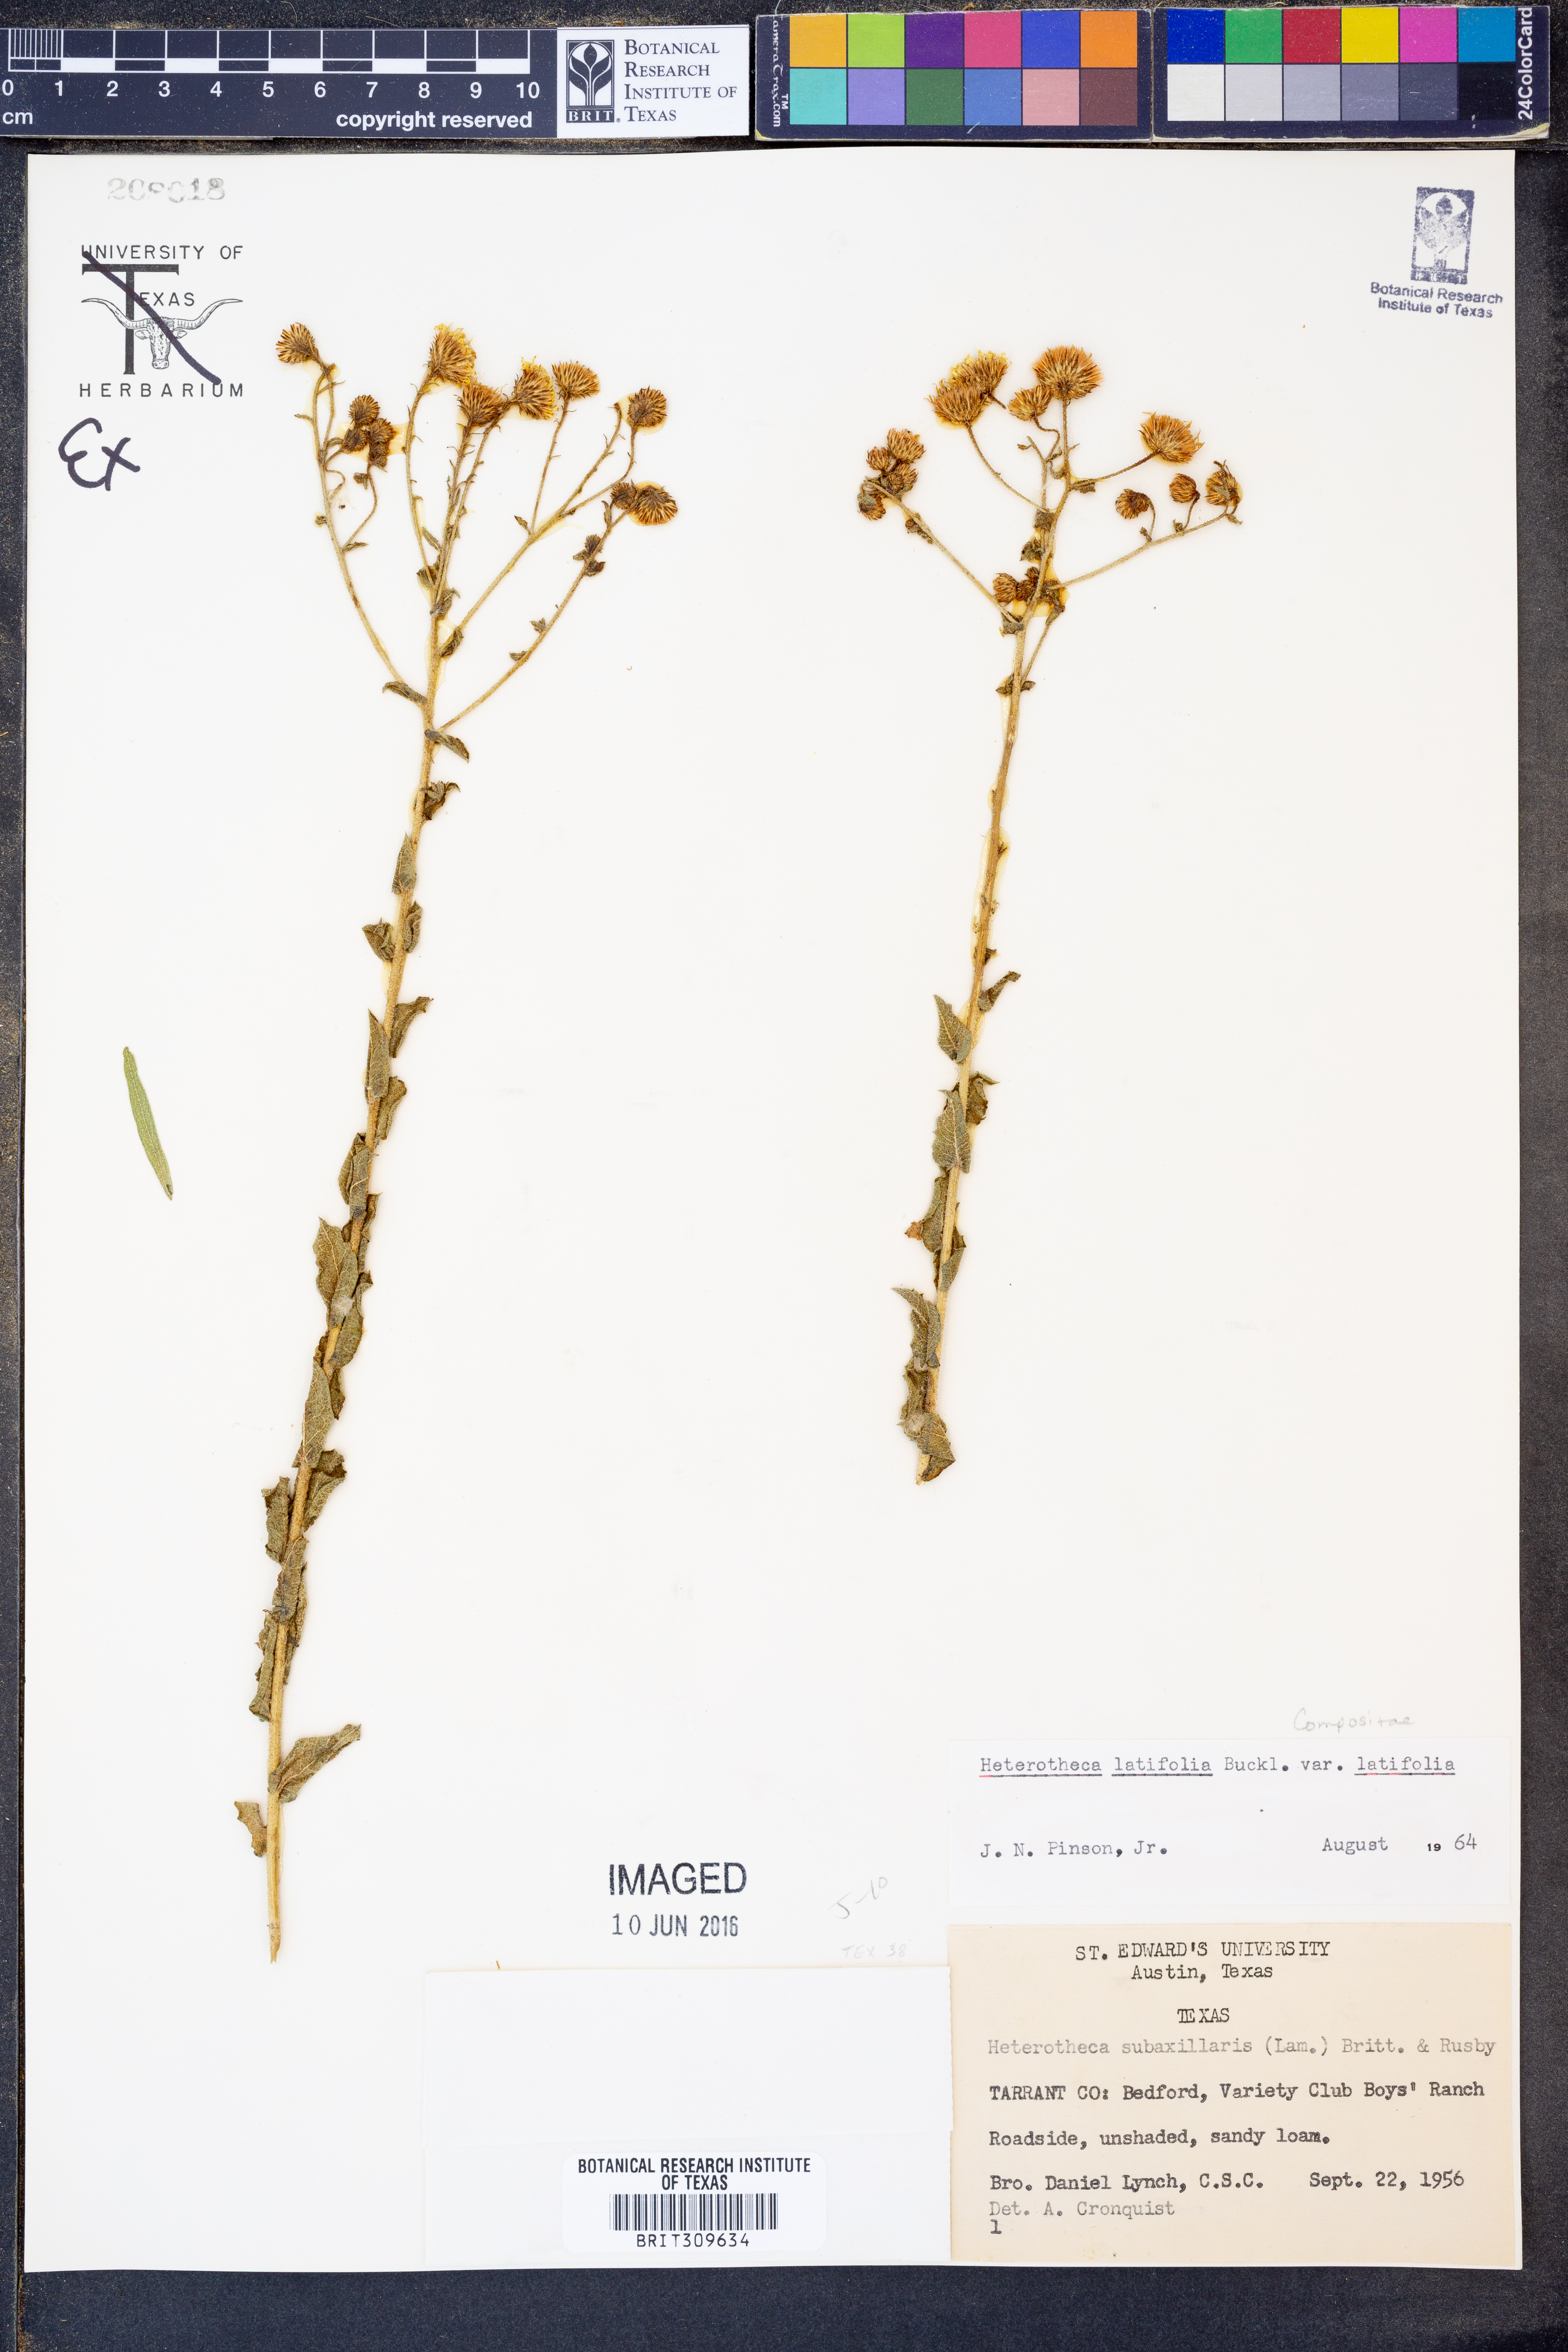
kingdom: Plantae
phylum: Tracheophyta
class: Magnoliopsida
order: Asterales
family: Asteraceae
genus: Heterotheca
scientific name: Heterotheca subaxillaris
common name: Camphorweed
